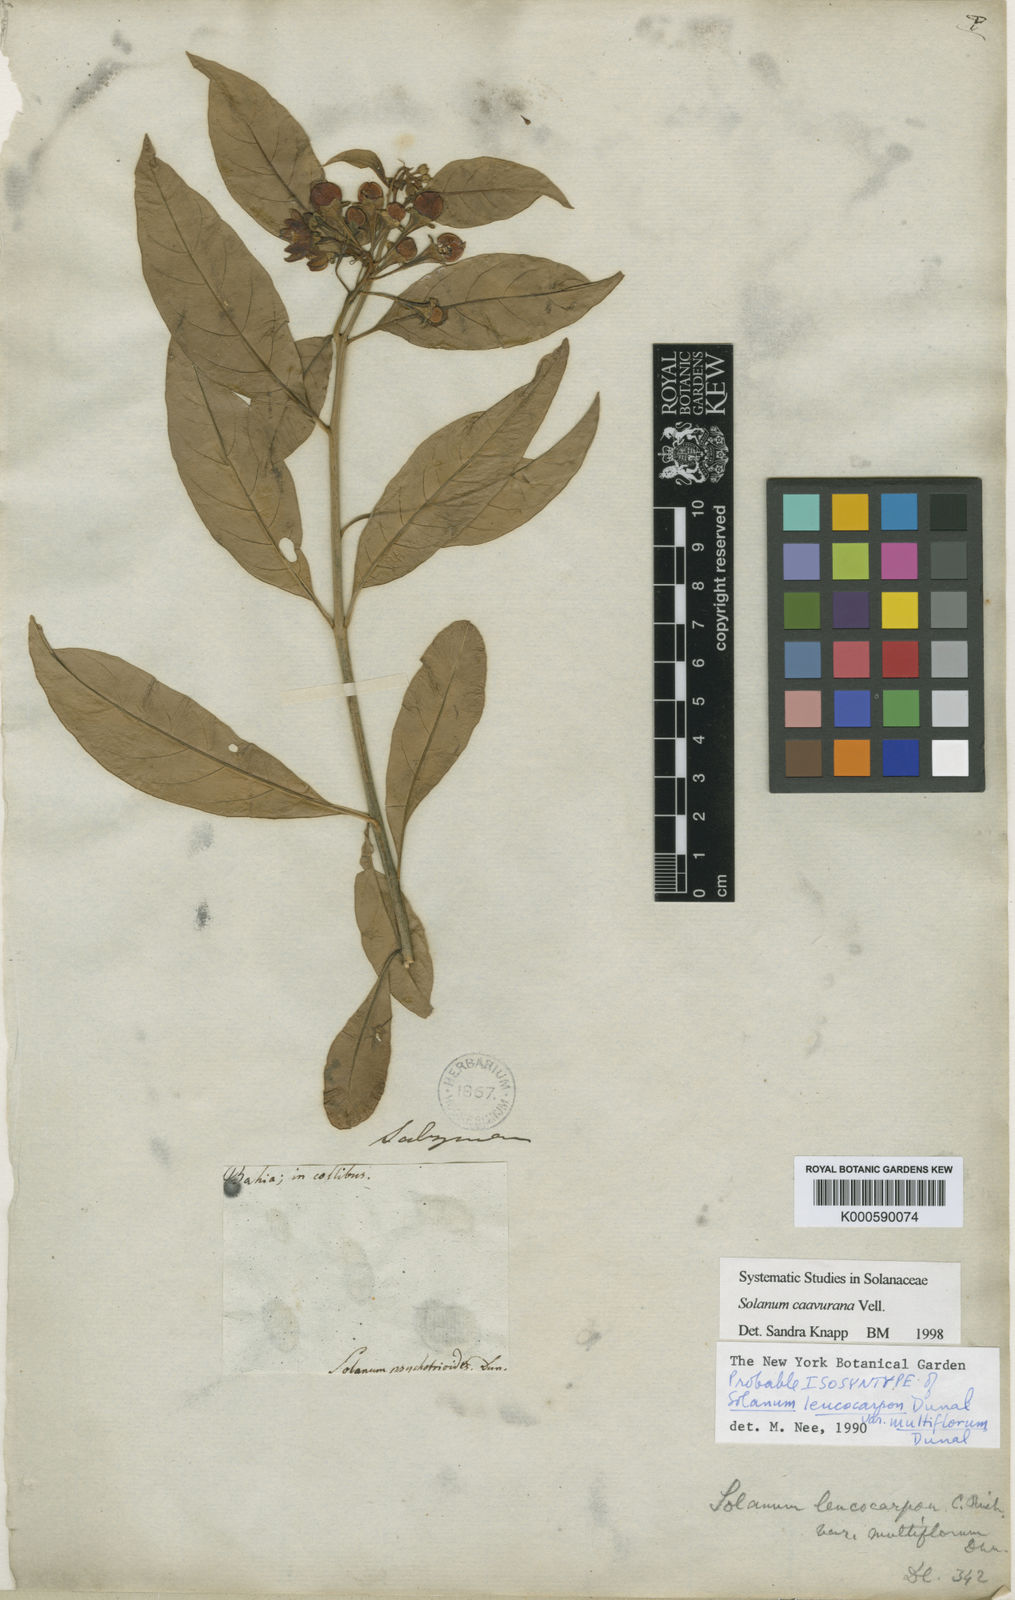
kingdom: Plantae
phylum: Tracheophyta
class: Magnoliopsida
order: Solanales
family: Solanaceae
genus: Solanum
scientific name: Solanum caavurana
